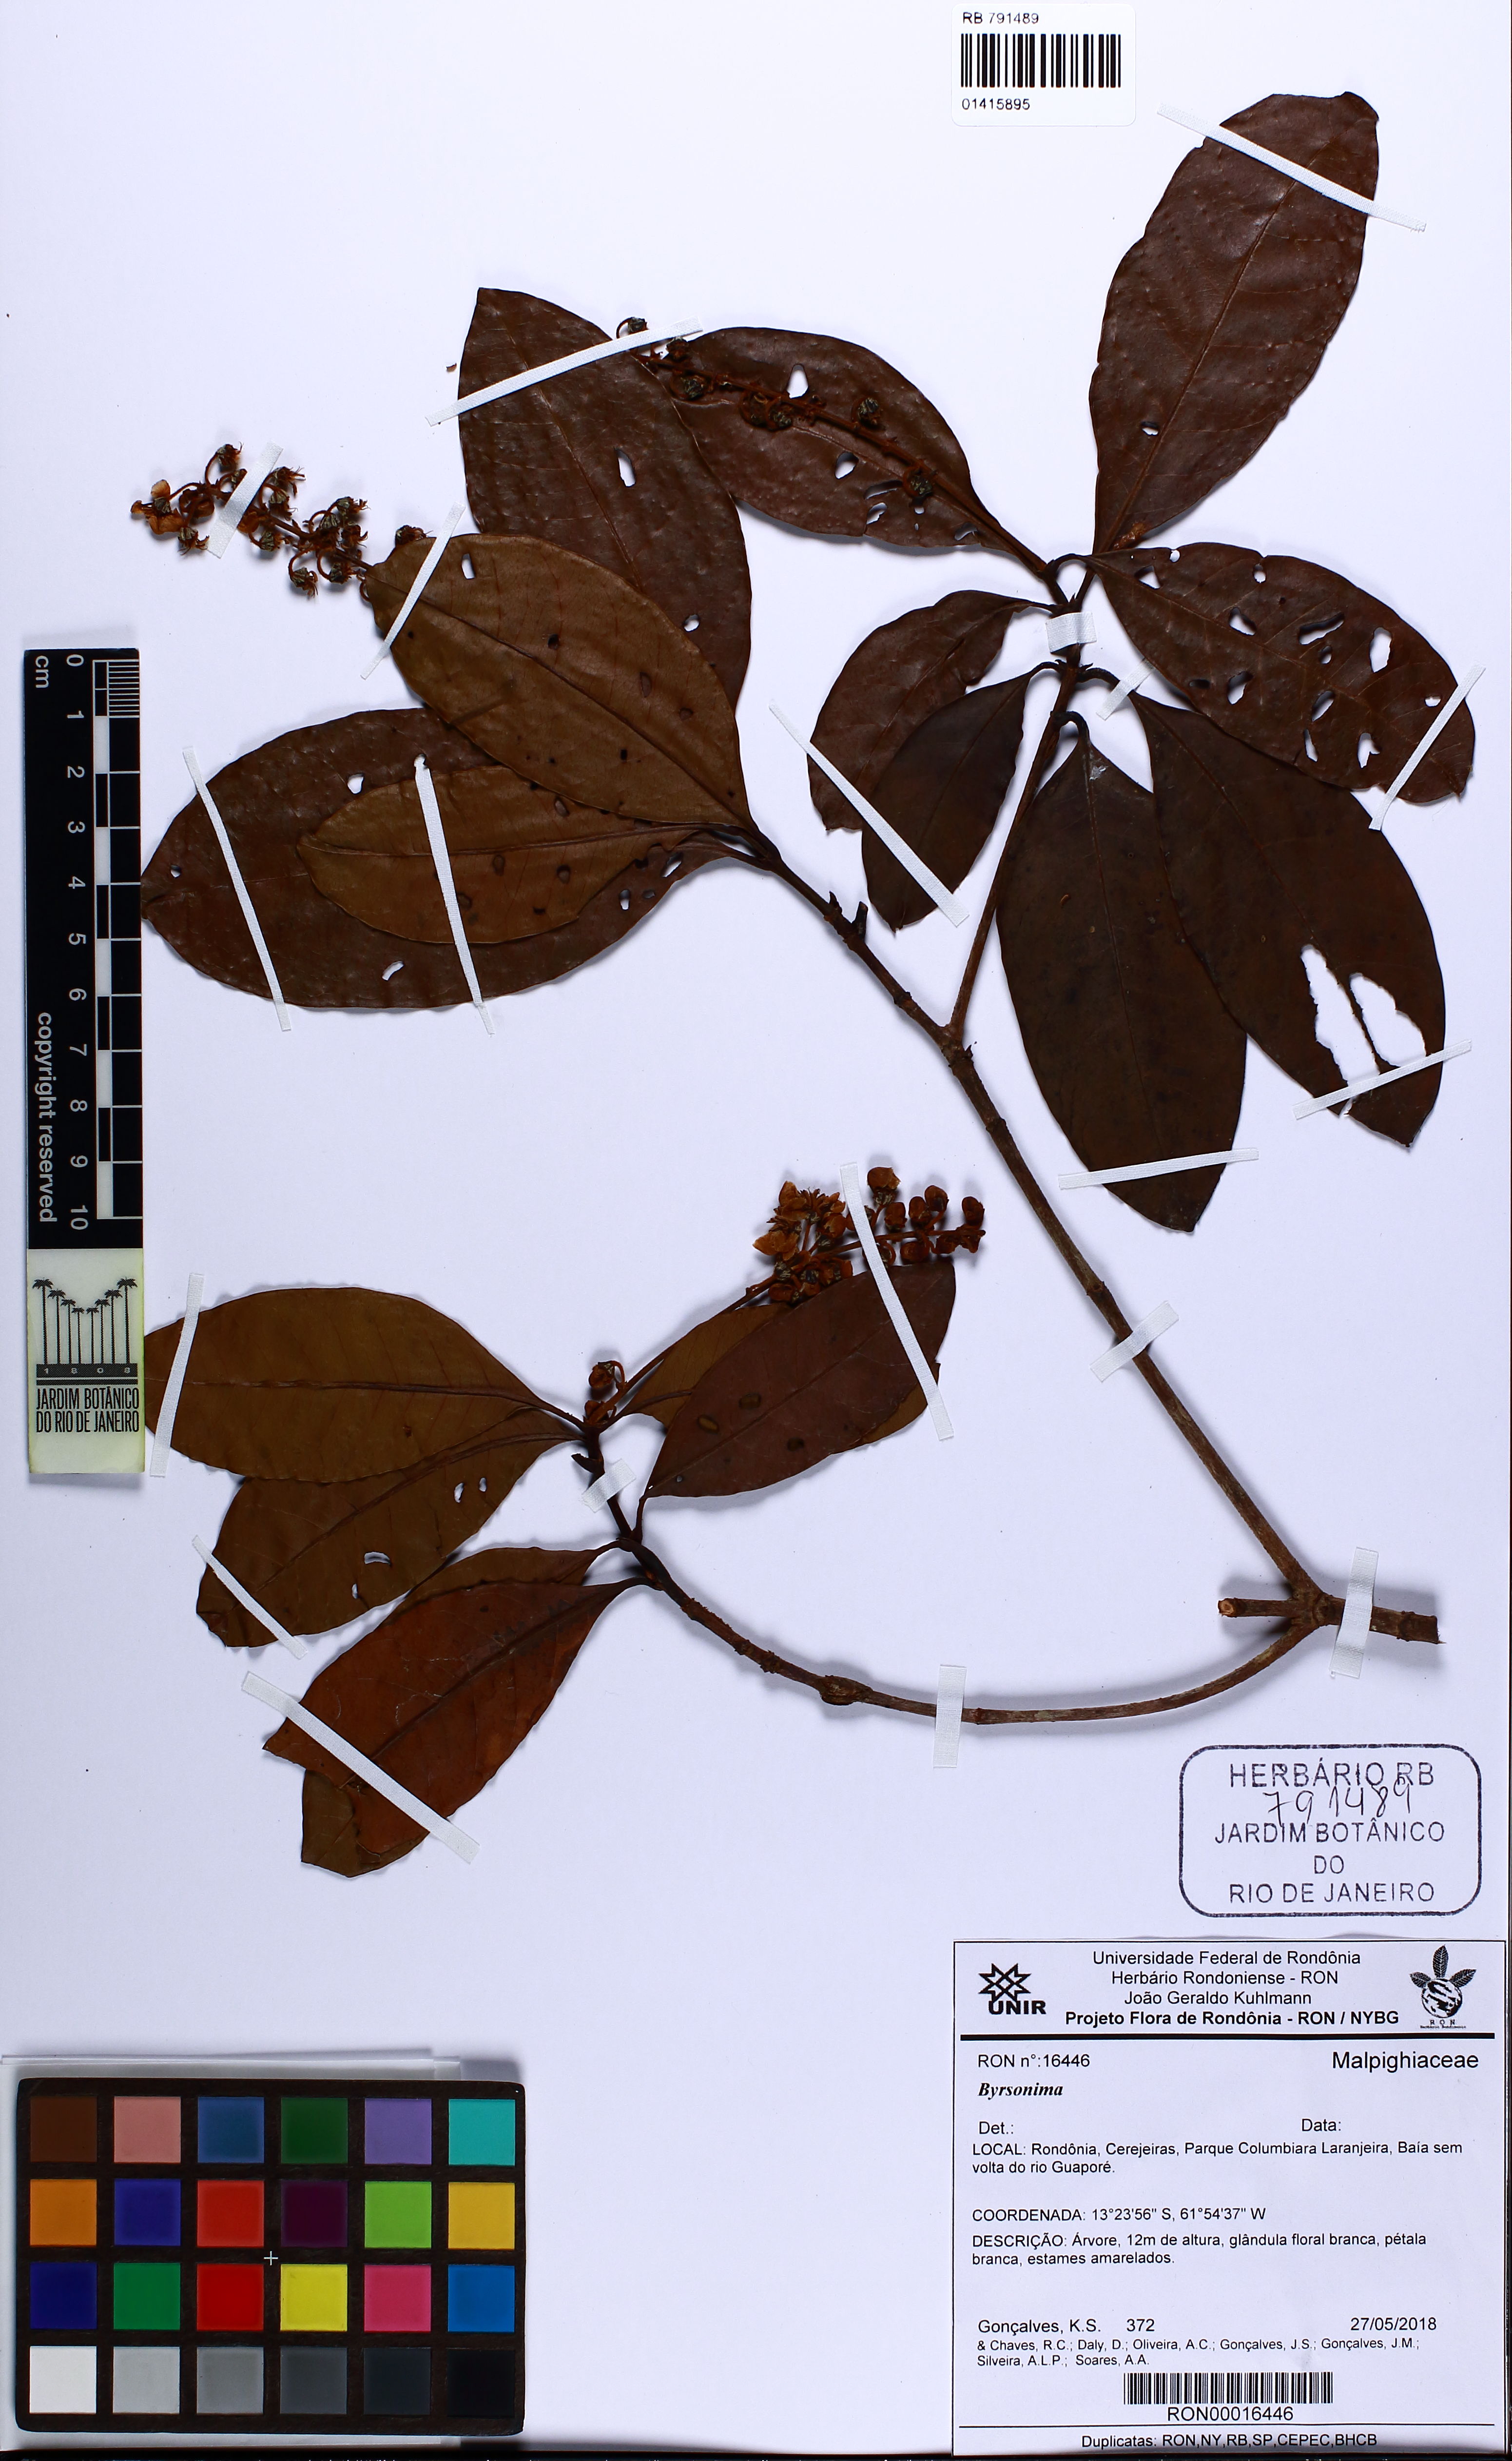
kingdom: Plantae
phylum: Tracheophyta
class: Magnoliopsida
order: Malpighiales
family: Malpighiaceae
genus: Byrsonima
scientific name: Byrsonima
